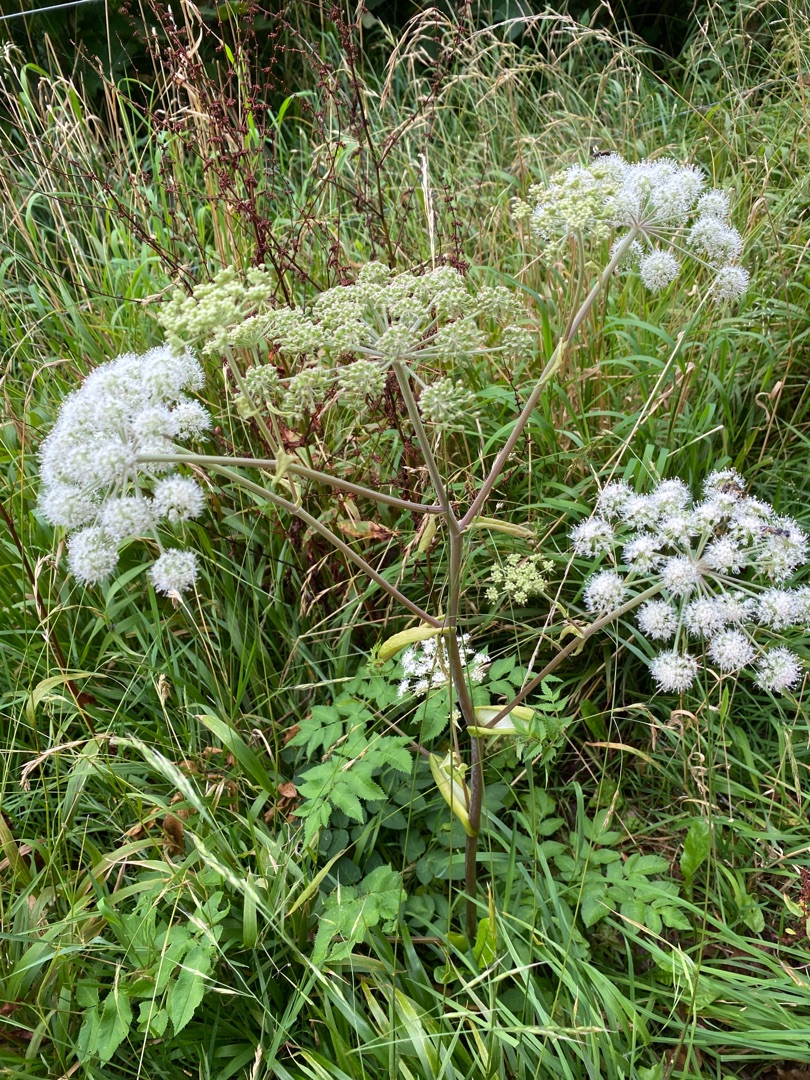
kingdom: Plantae
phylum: Tracheophyta
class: Magnoliopsida
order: Apiales
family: Apiaceae
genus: Angelica
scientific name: Angelica sylvestris
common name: Angelik
